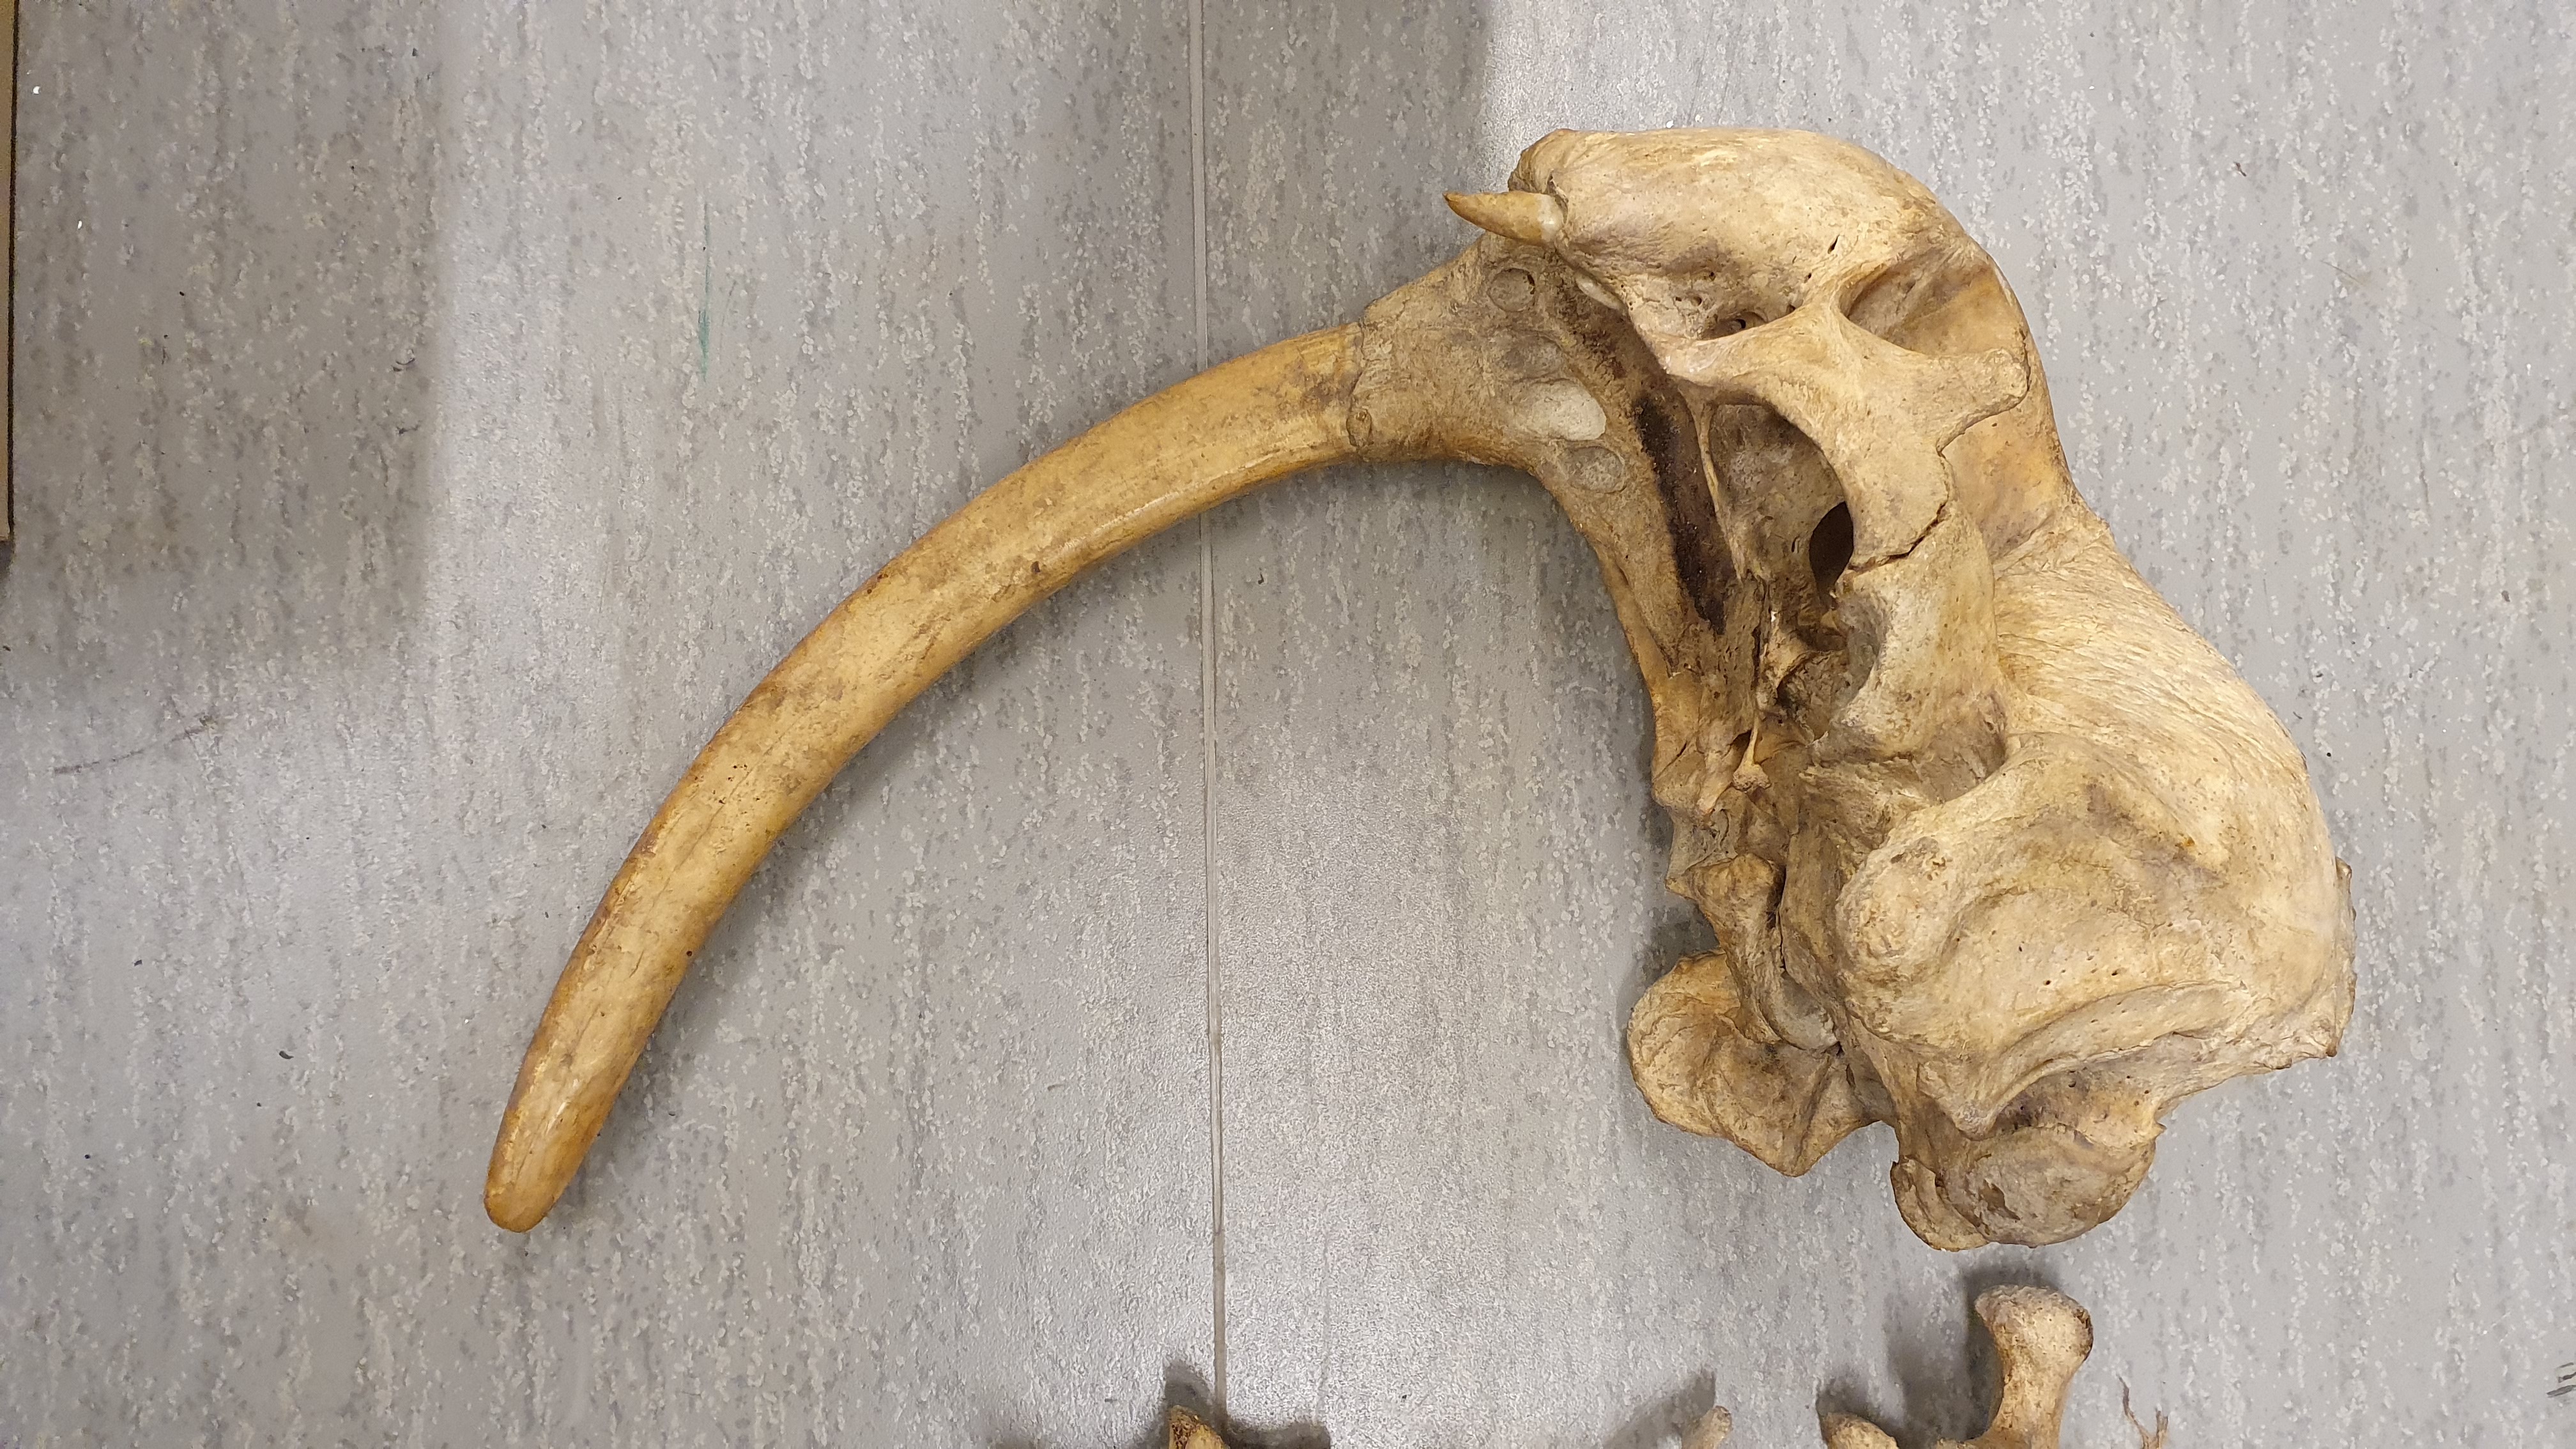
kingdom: Animalia
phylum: Chordata
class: Mammalia
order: Carnivora
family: Odobenidae
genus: Odobenus
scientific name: Odobenus rosmarus
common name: Walrus
